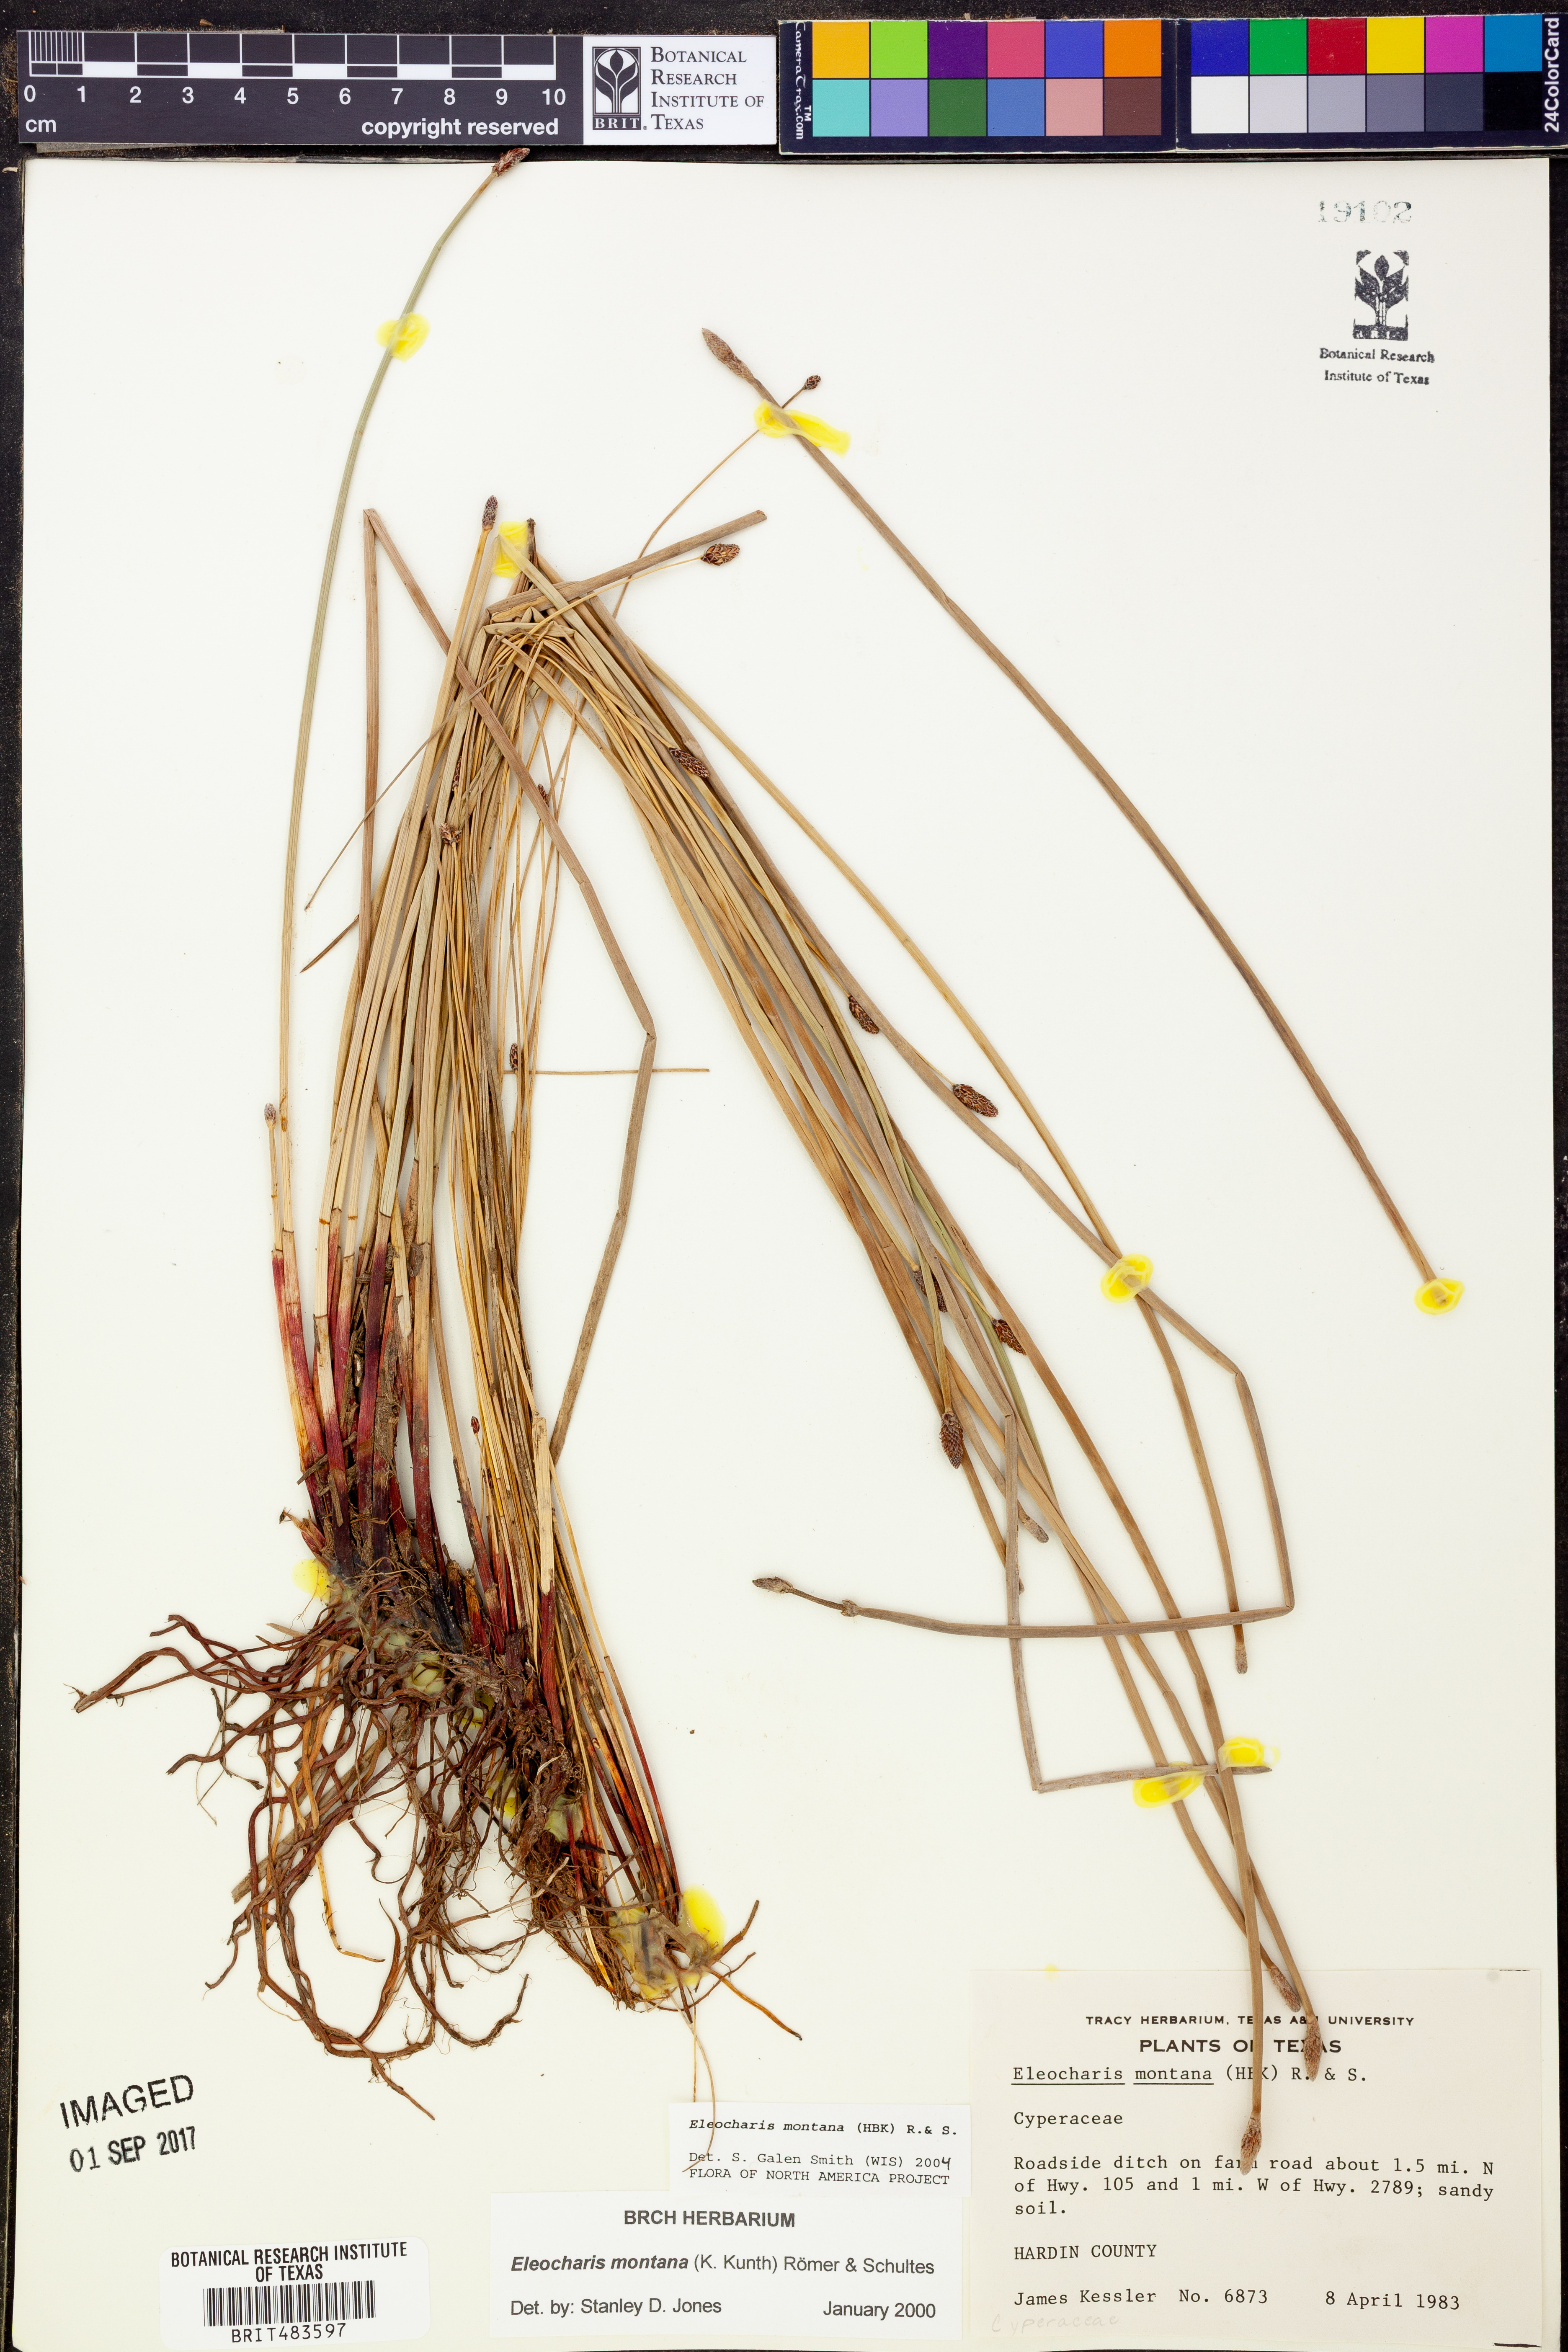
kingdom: Plantae
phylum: Tracheophyta
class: Liliopsida
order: Poales
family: Cyperaceae
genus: Eleocharis
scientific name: Eleocharis montana
